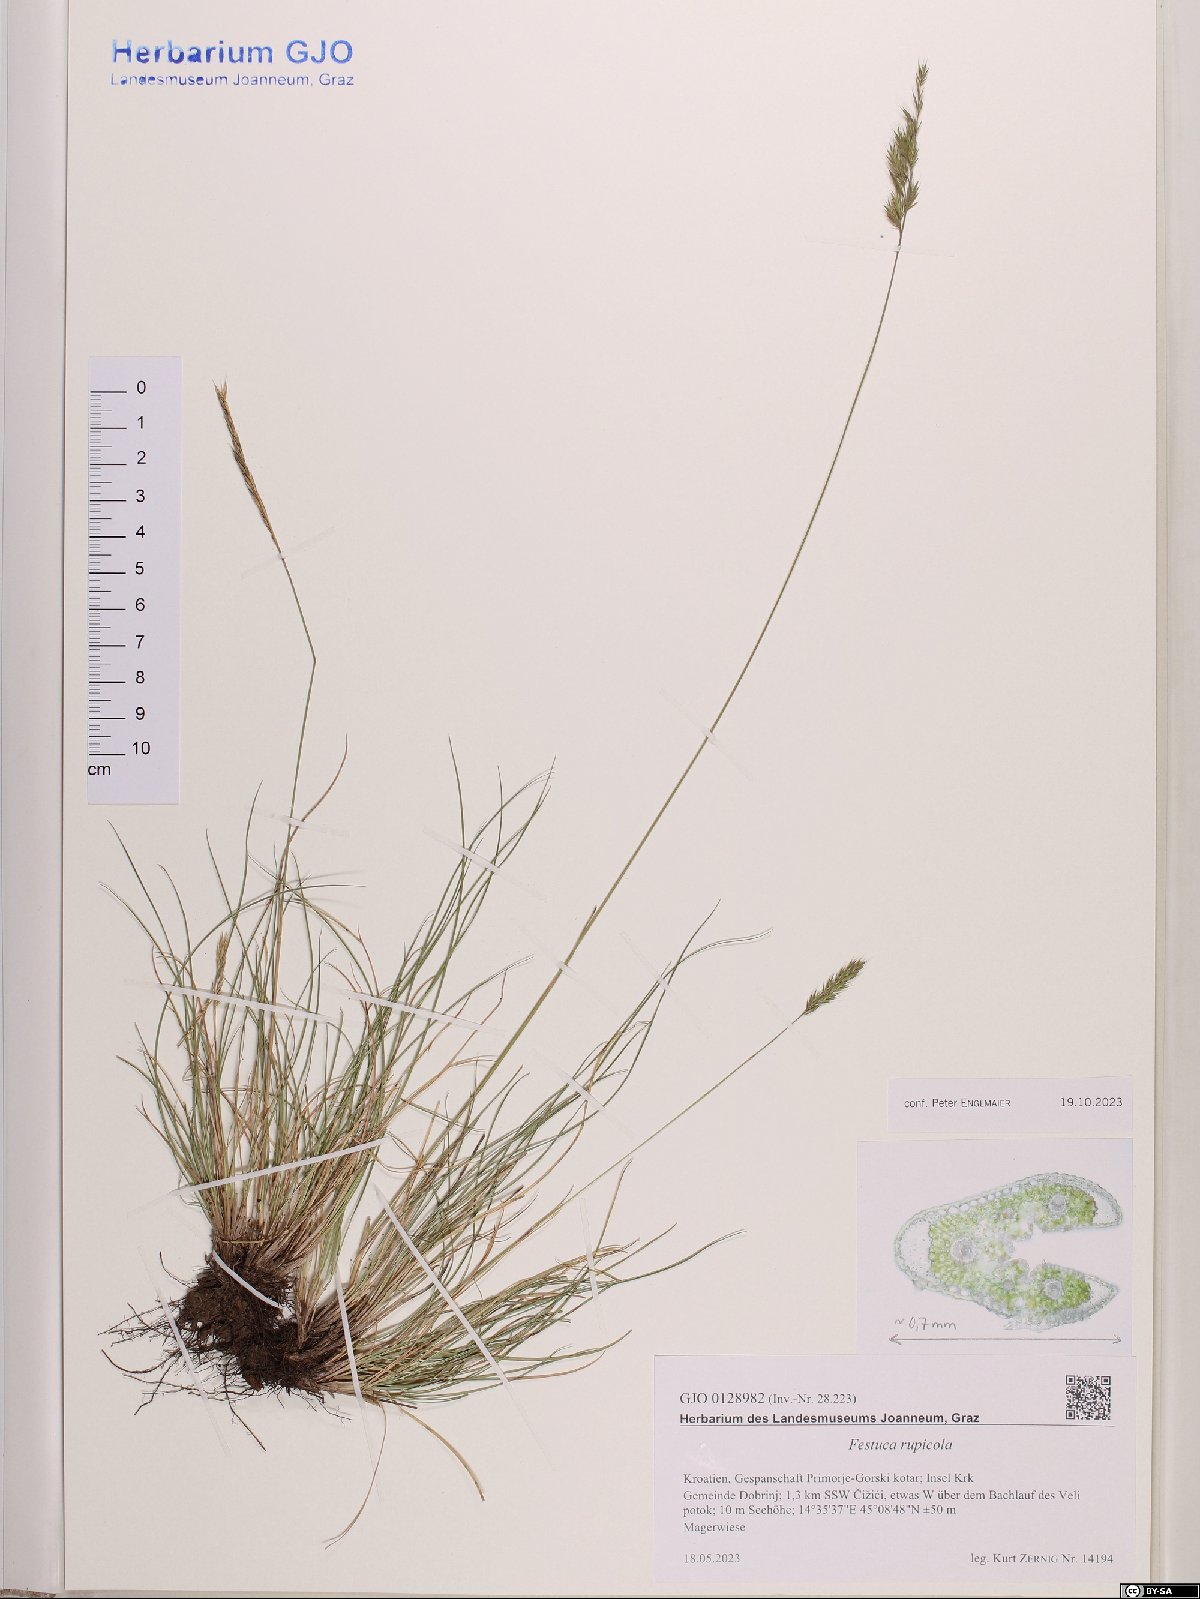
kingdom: Plantae
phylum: Tracheophyta
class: Liliopsida
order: Poales
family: Poaceae
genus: Festuca
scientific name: Festuca rupicola
